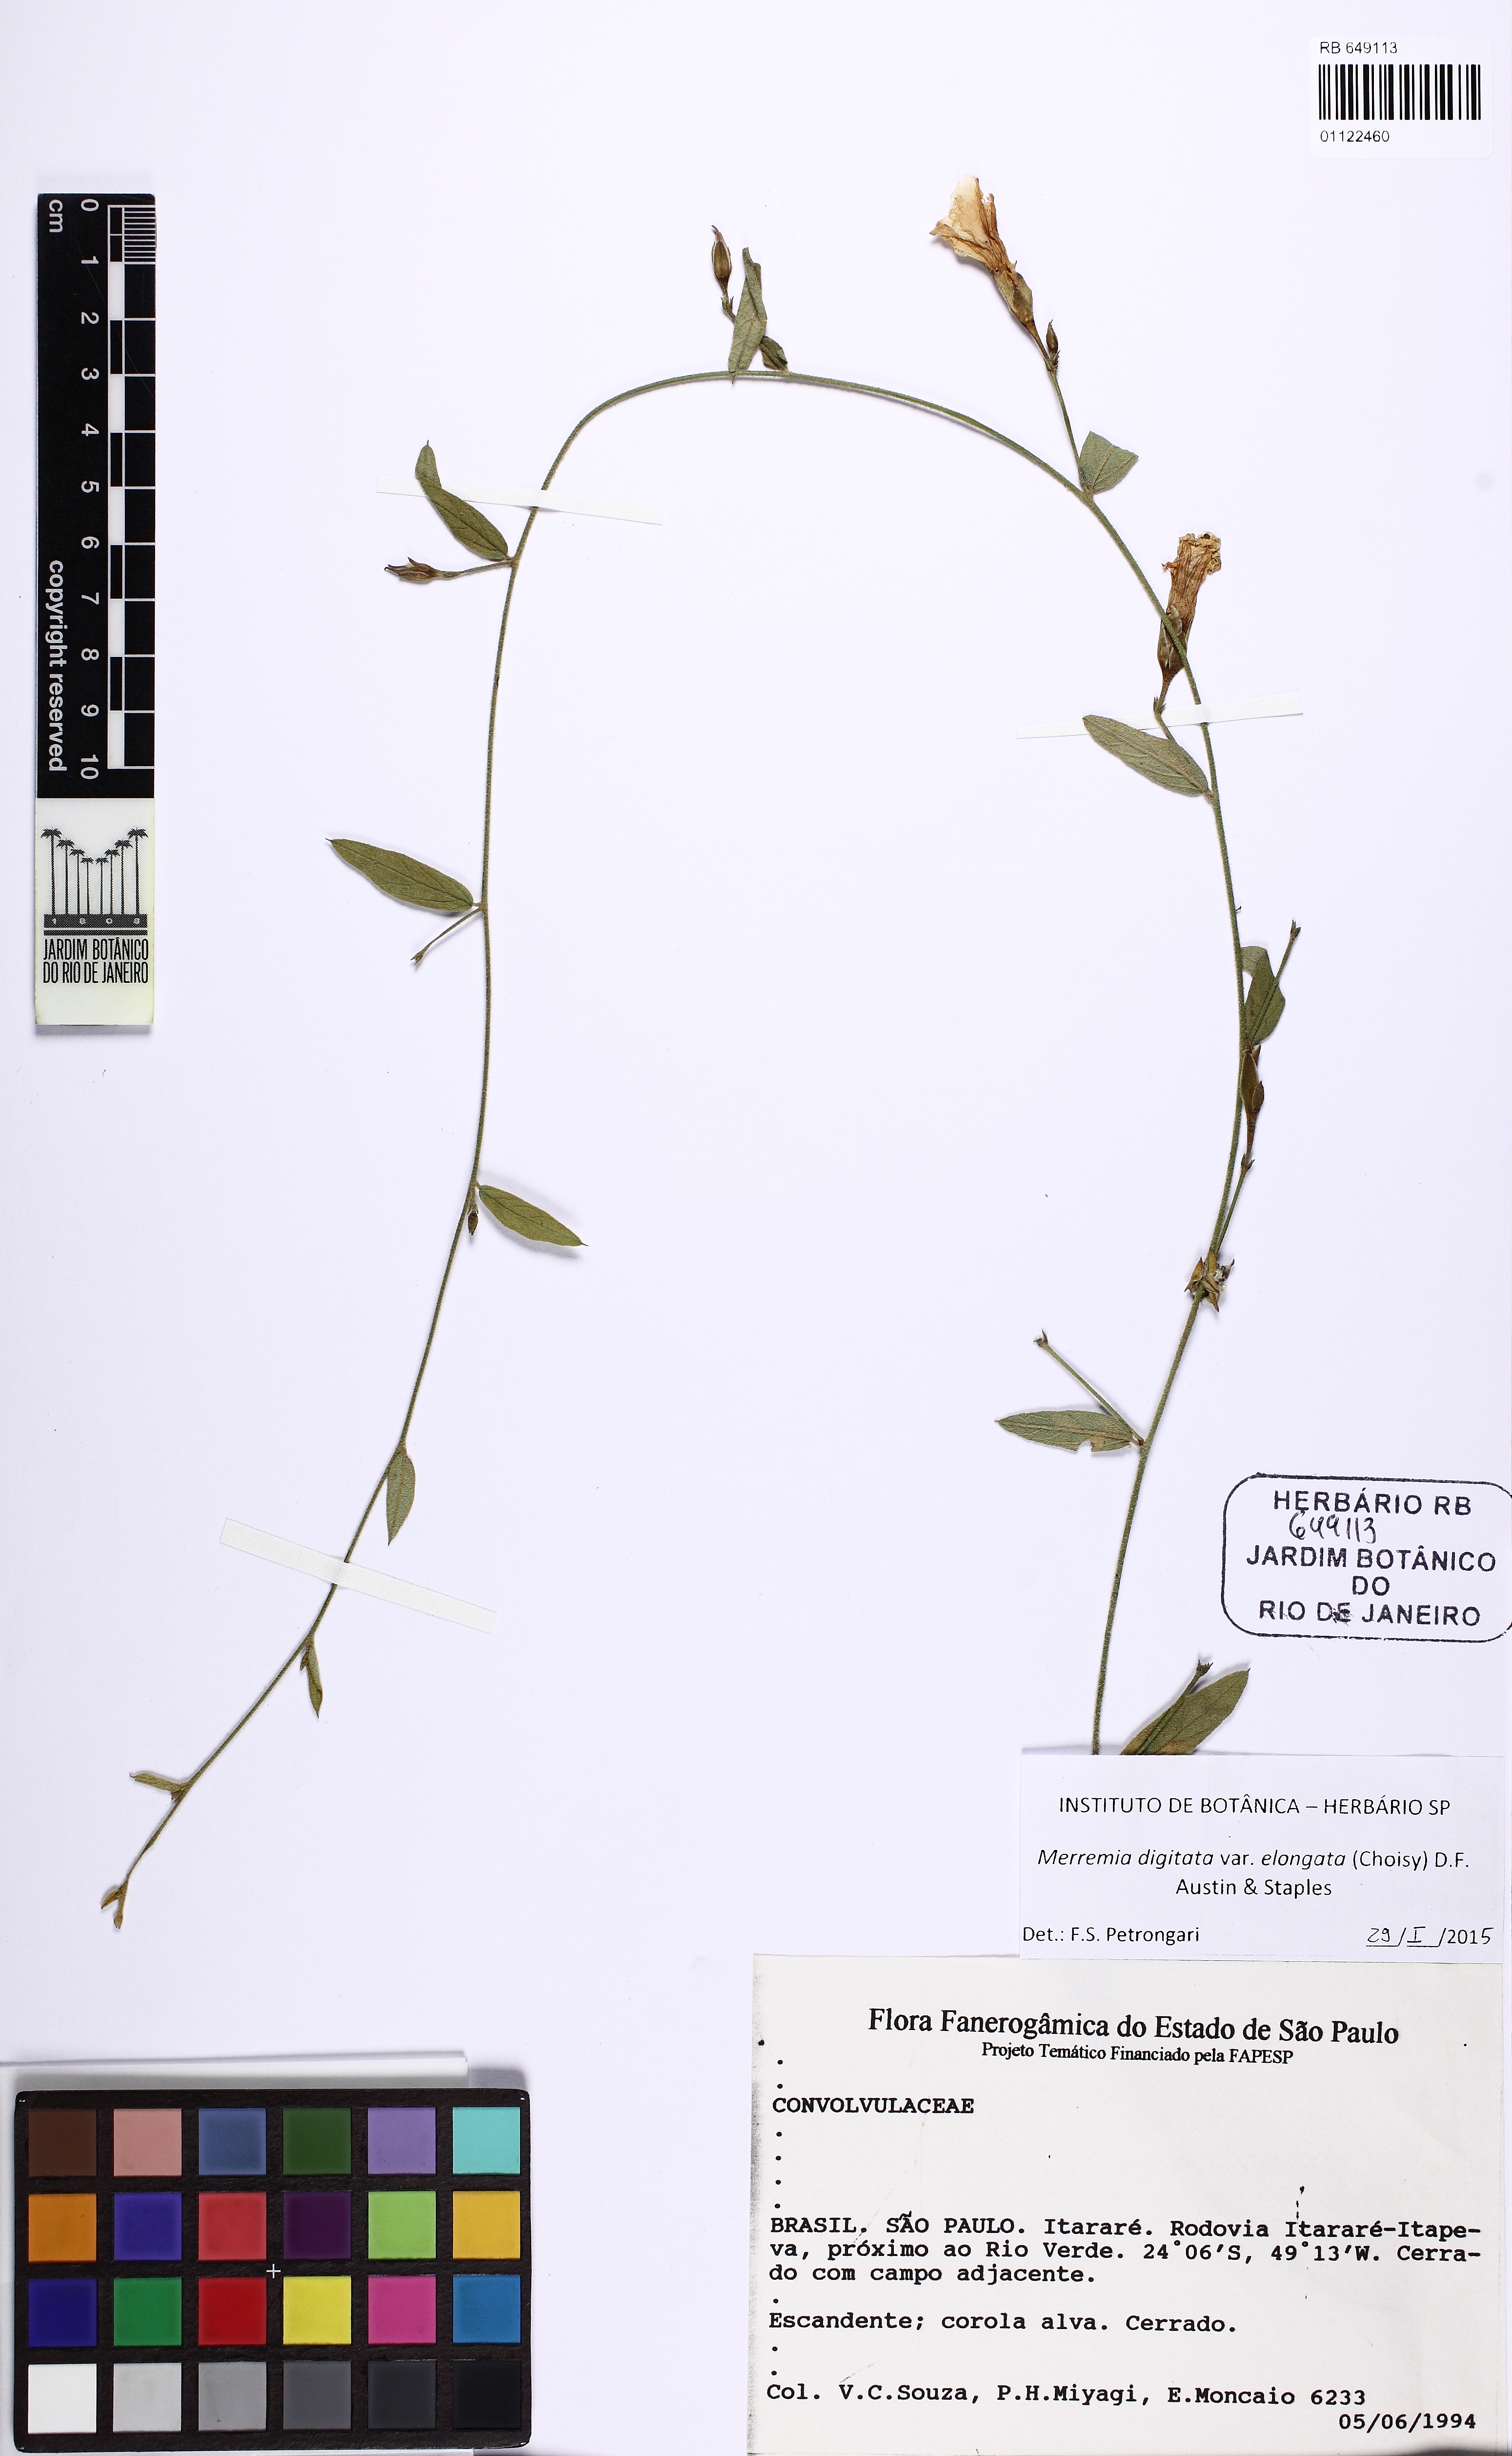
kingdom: Plantae
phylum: Tracheophyta
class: Magnoliopsida
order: Solanales
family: Convolvulaceae
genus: Distimake
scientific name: Distimake maragniensis
